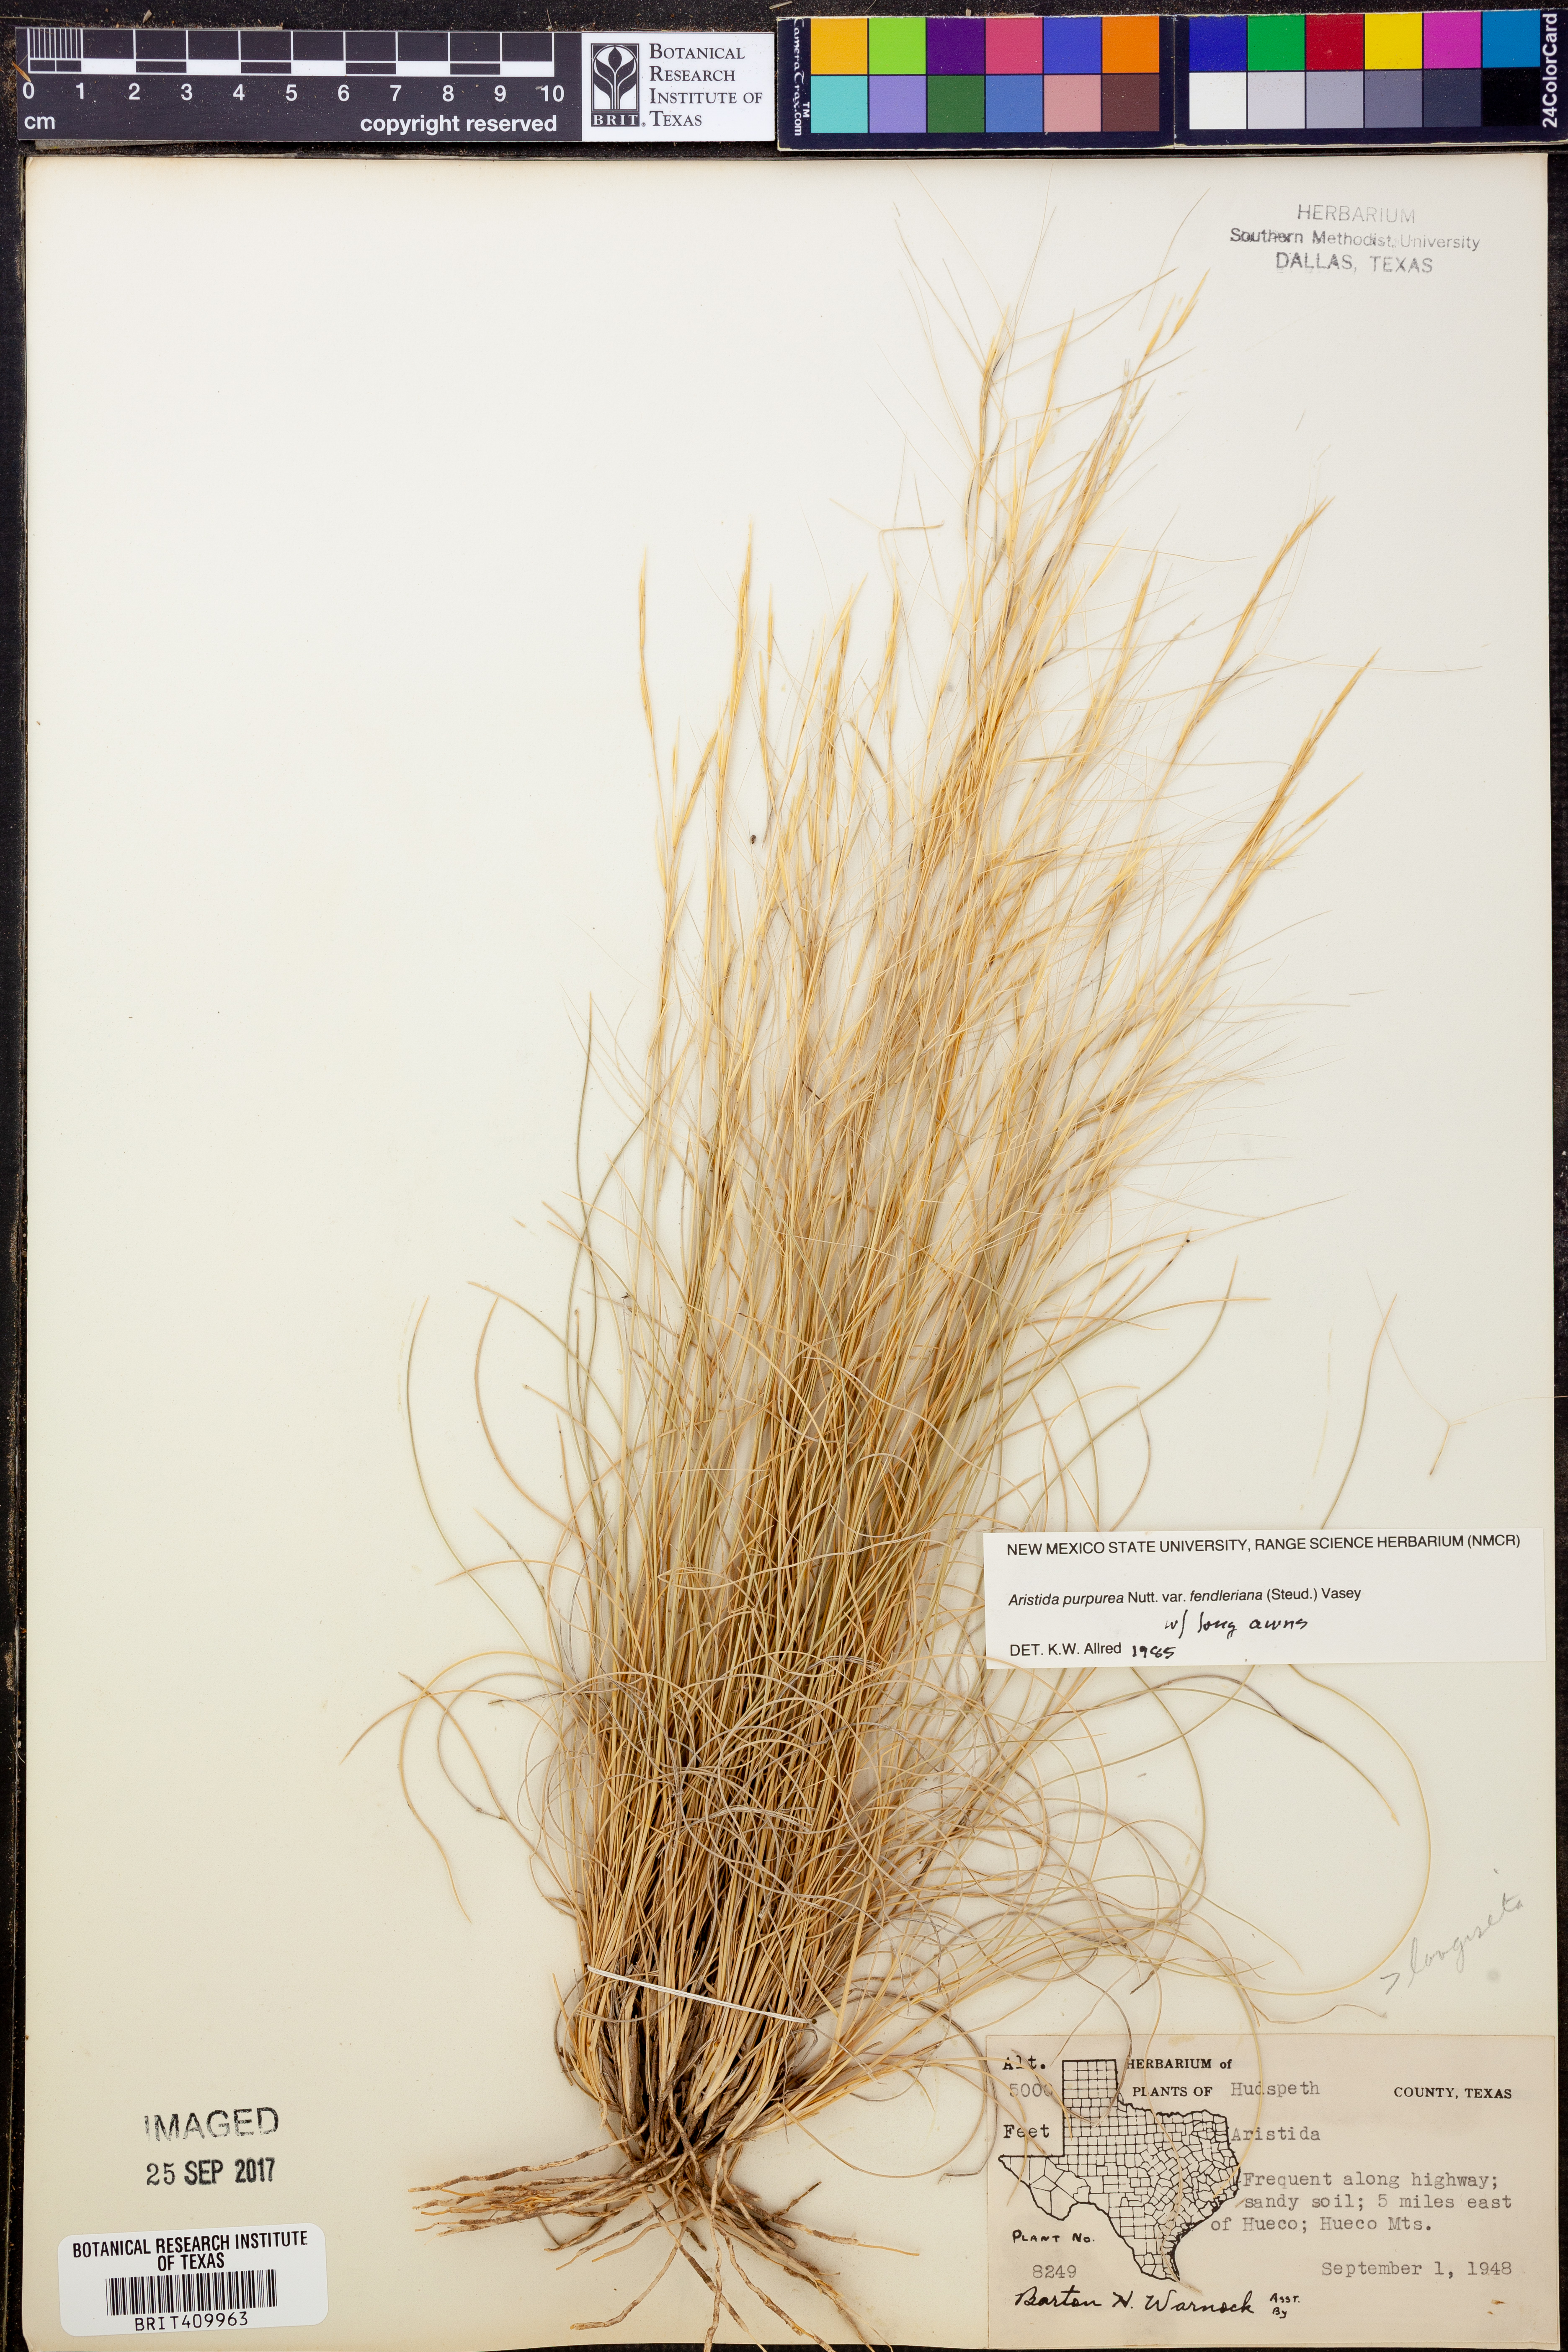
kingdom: Plantae
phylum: Tracheophyta
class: Liliopsida
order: Poales
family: Poaceae
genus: Aristida
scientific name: Aristida fendleriana
